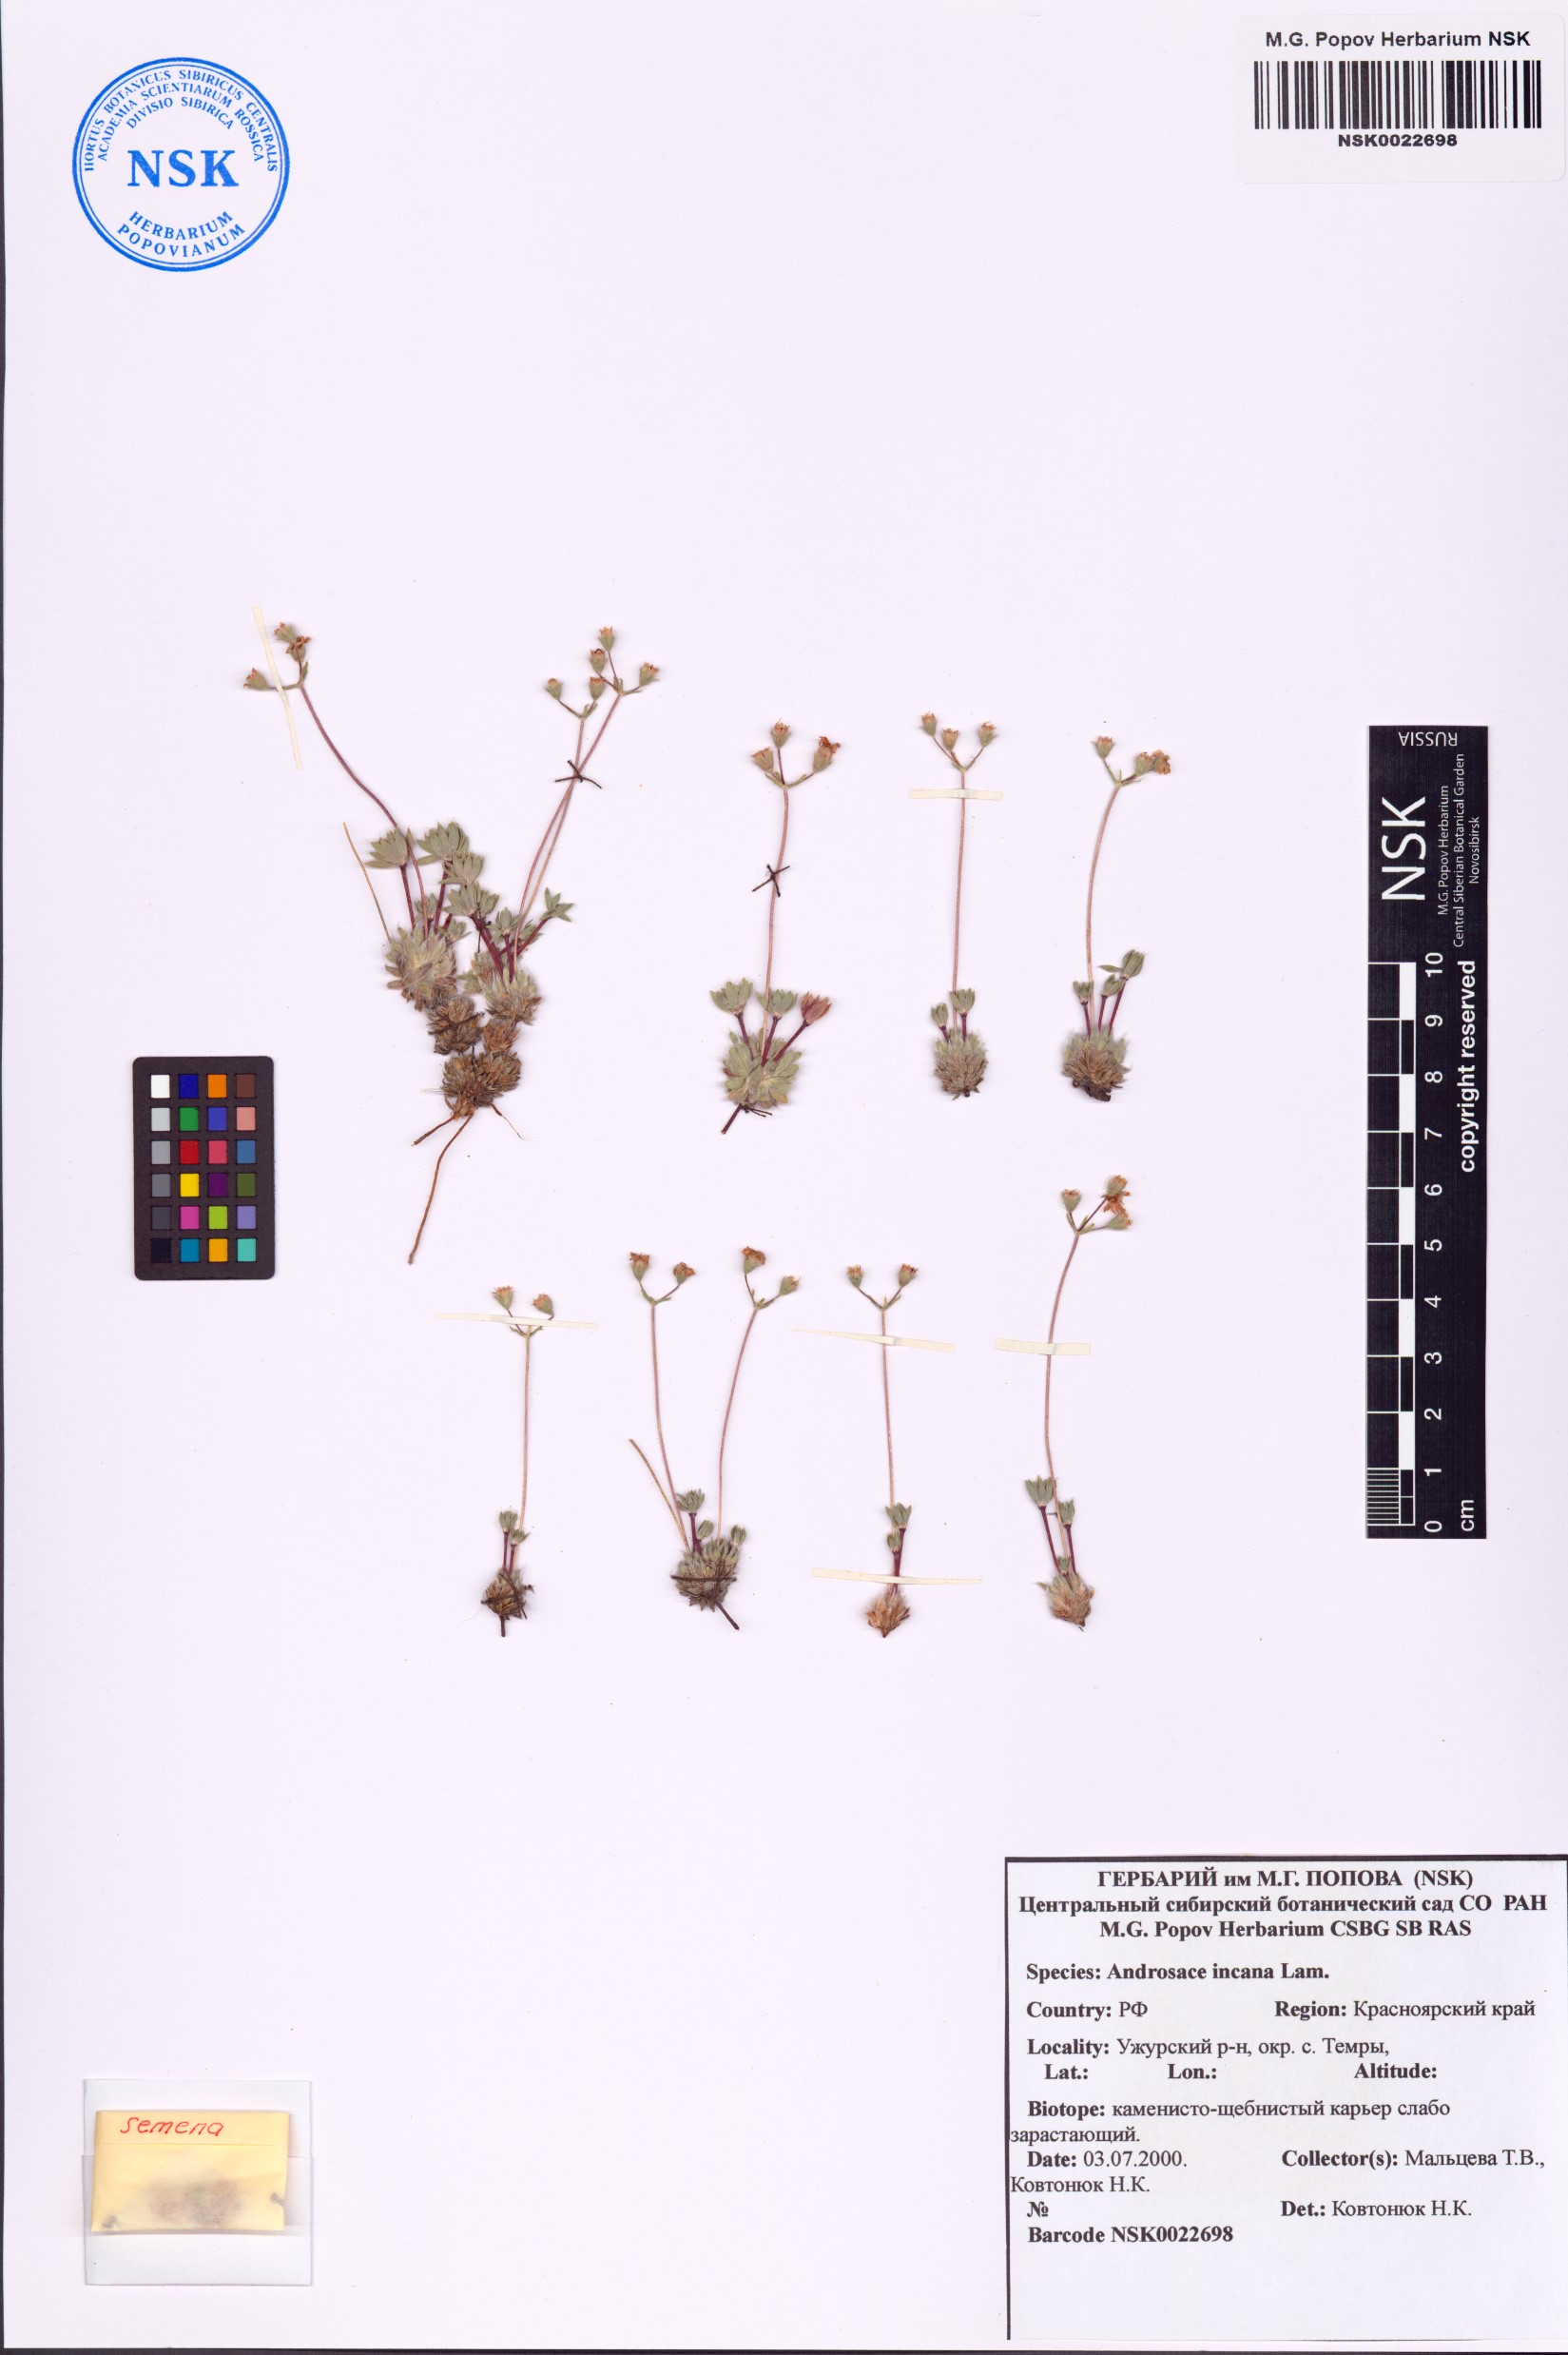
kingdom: Plantae
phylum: Tracheophyta
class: Magnoliopsida
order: Ericales
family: Primulaceae
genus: Androsace
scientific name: Androsace incana
